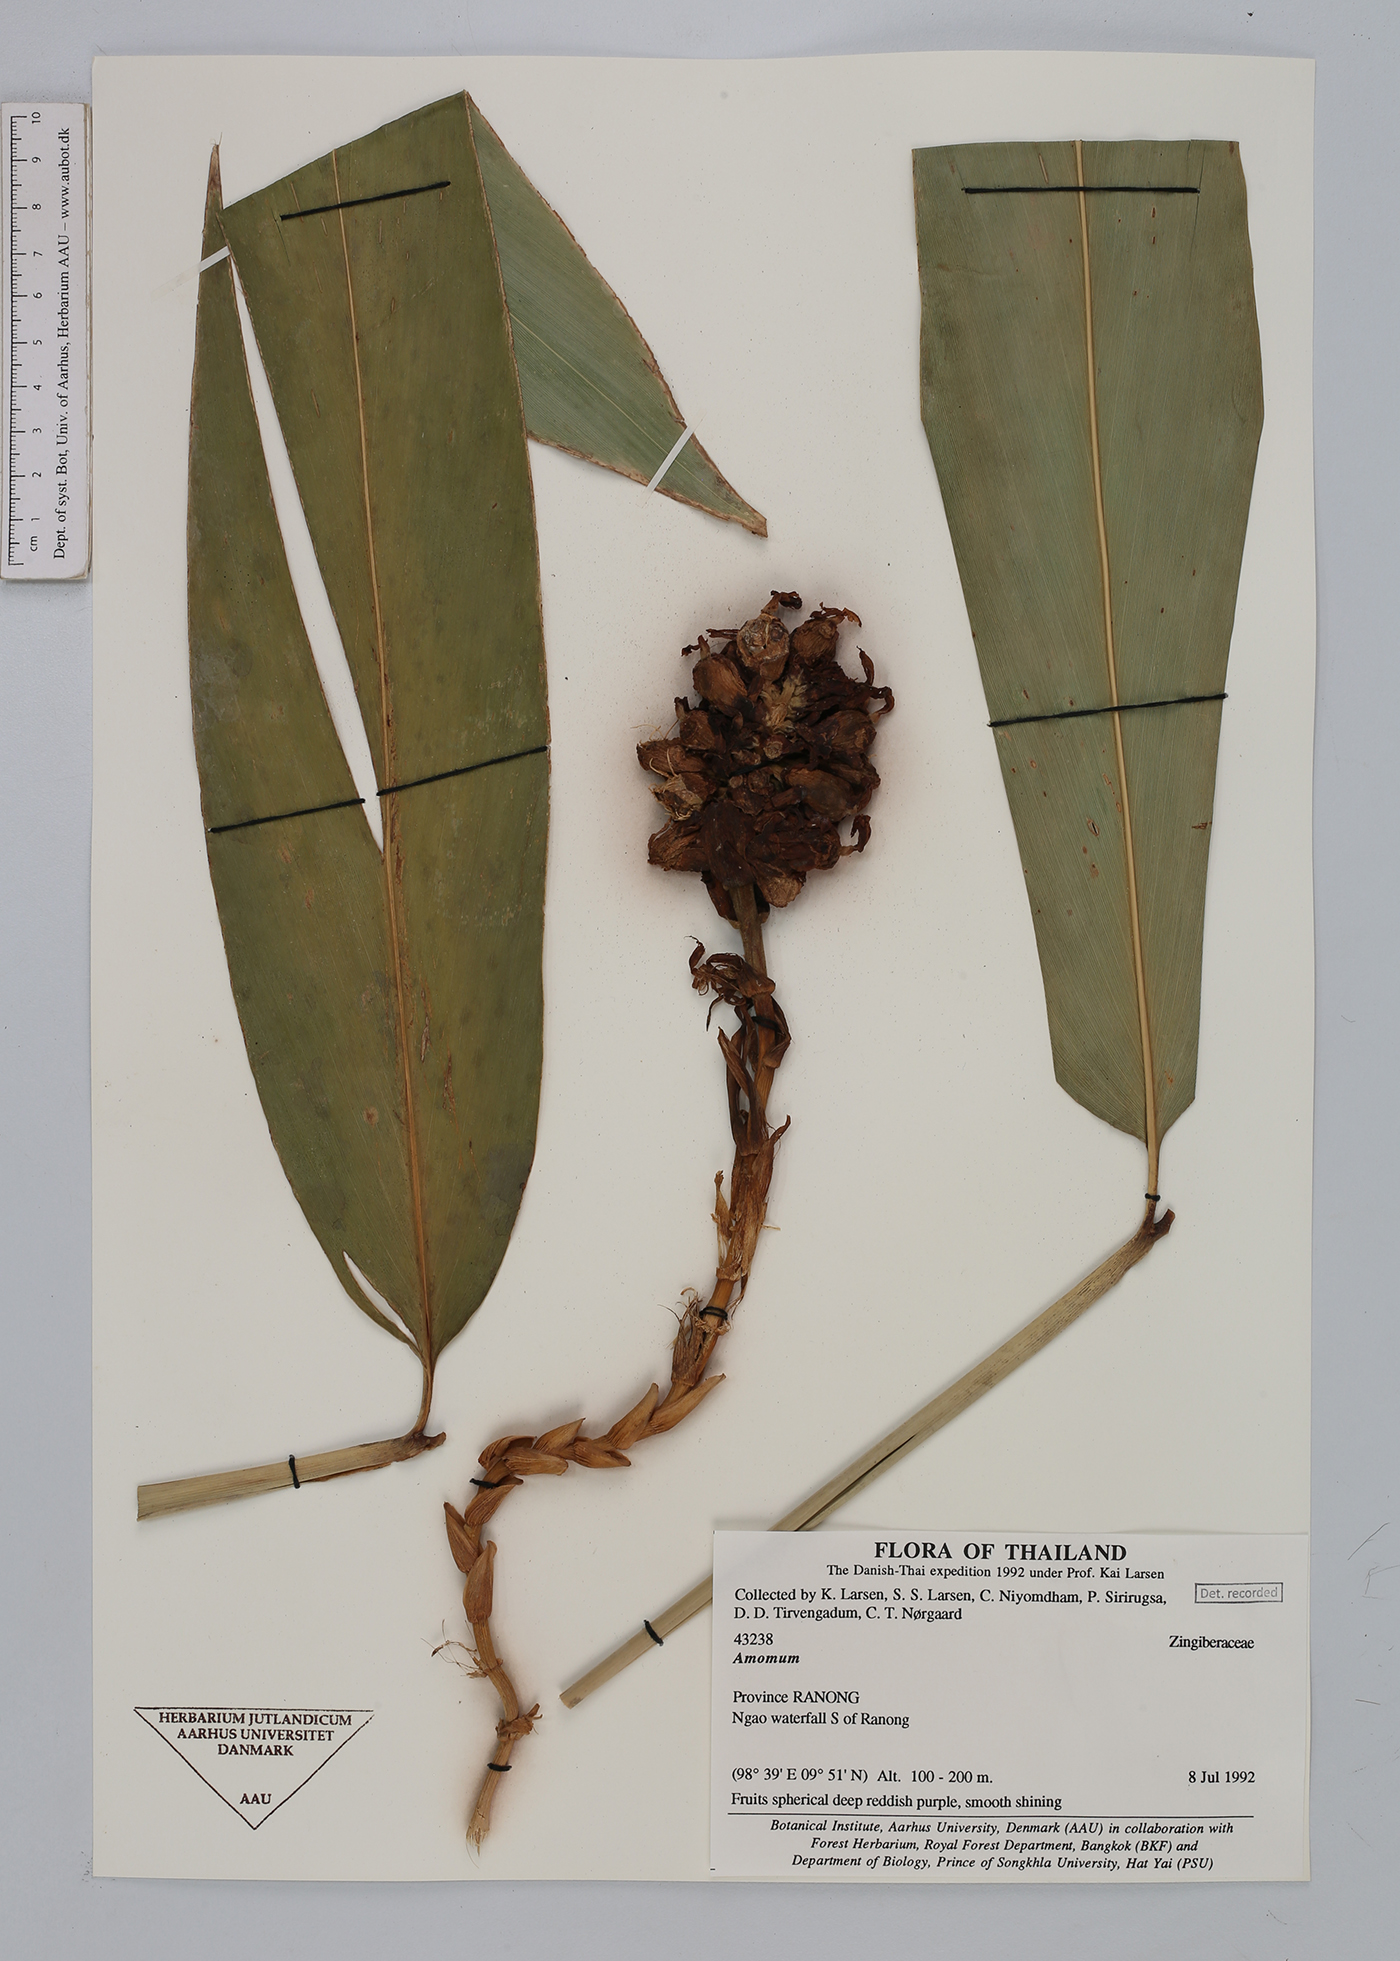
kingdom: Plantae
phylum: Tracheophyta
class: Liliopsida
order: Zingiberales
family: Zingiberaceae
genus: Amomum
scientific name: Amomum
